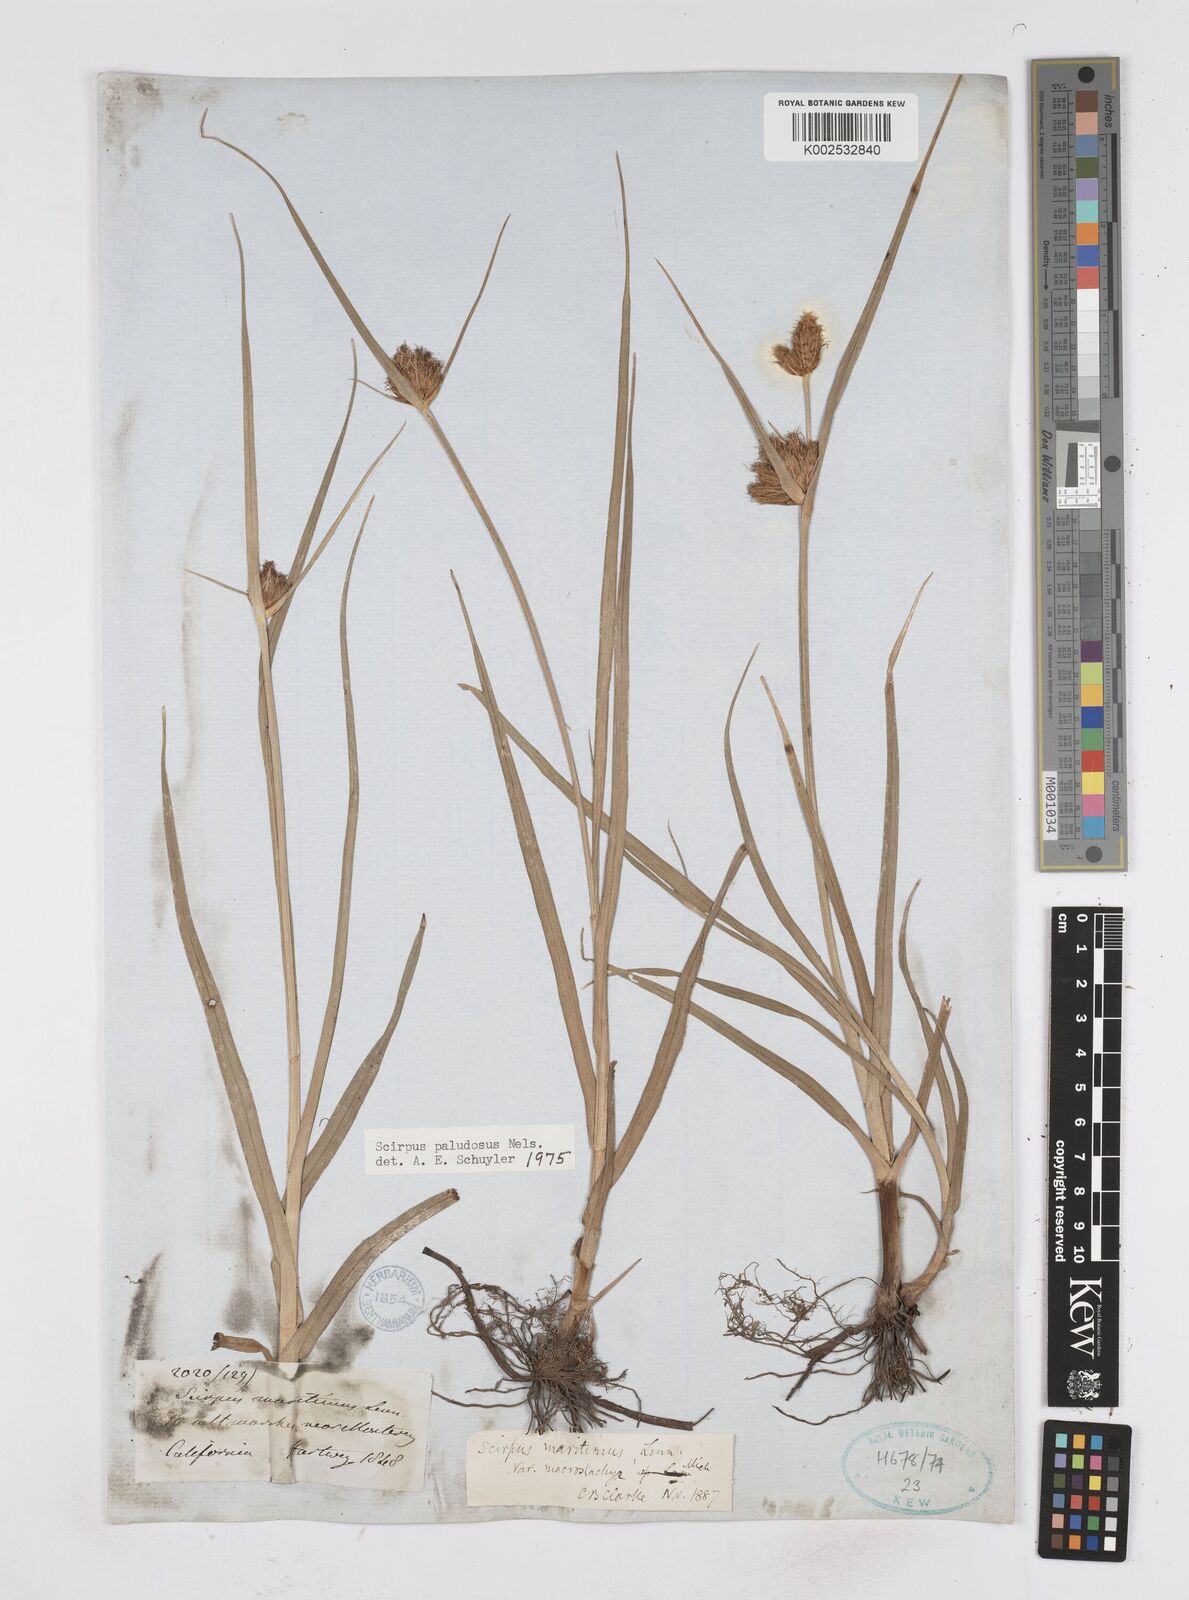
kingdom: Plantae
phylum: Tracheophyta
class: Liliopsida
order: Poales
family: Cyperaceae
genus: Bolboschoenus
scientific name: Bolboschoenus maritimus
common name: Sea club-rush
